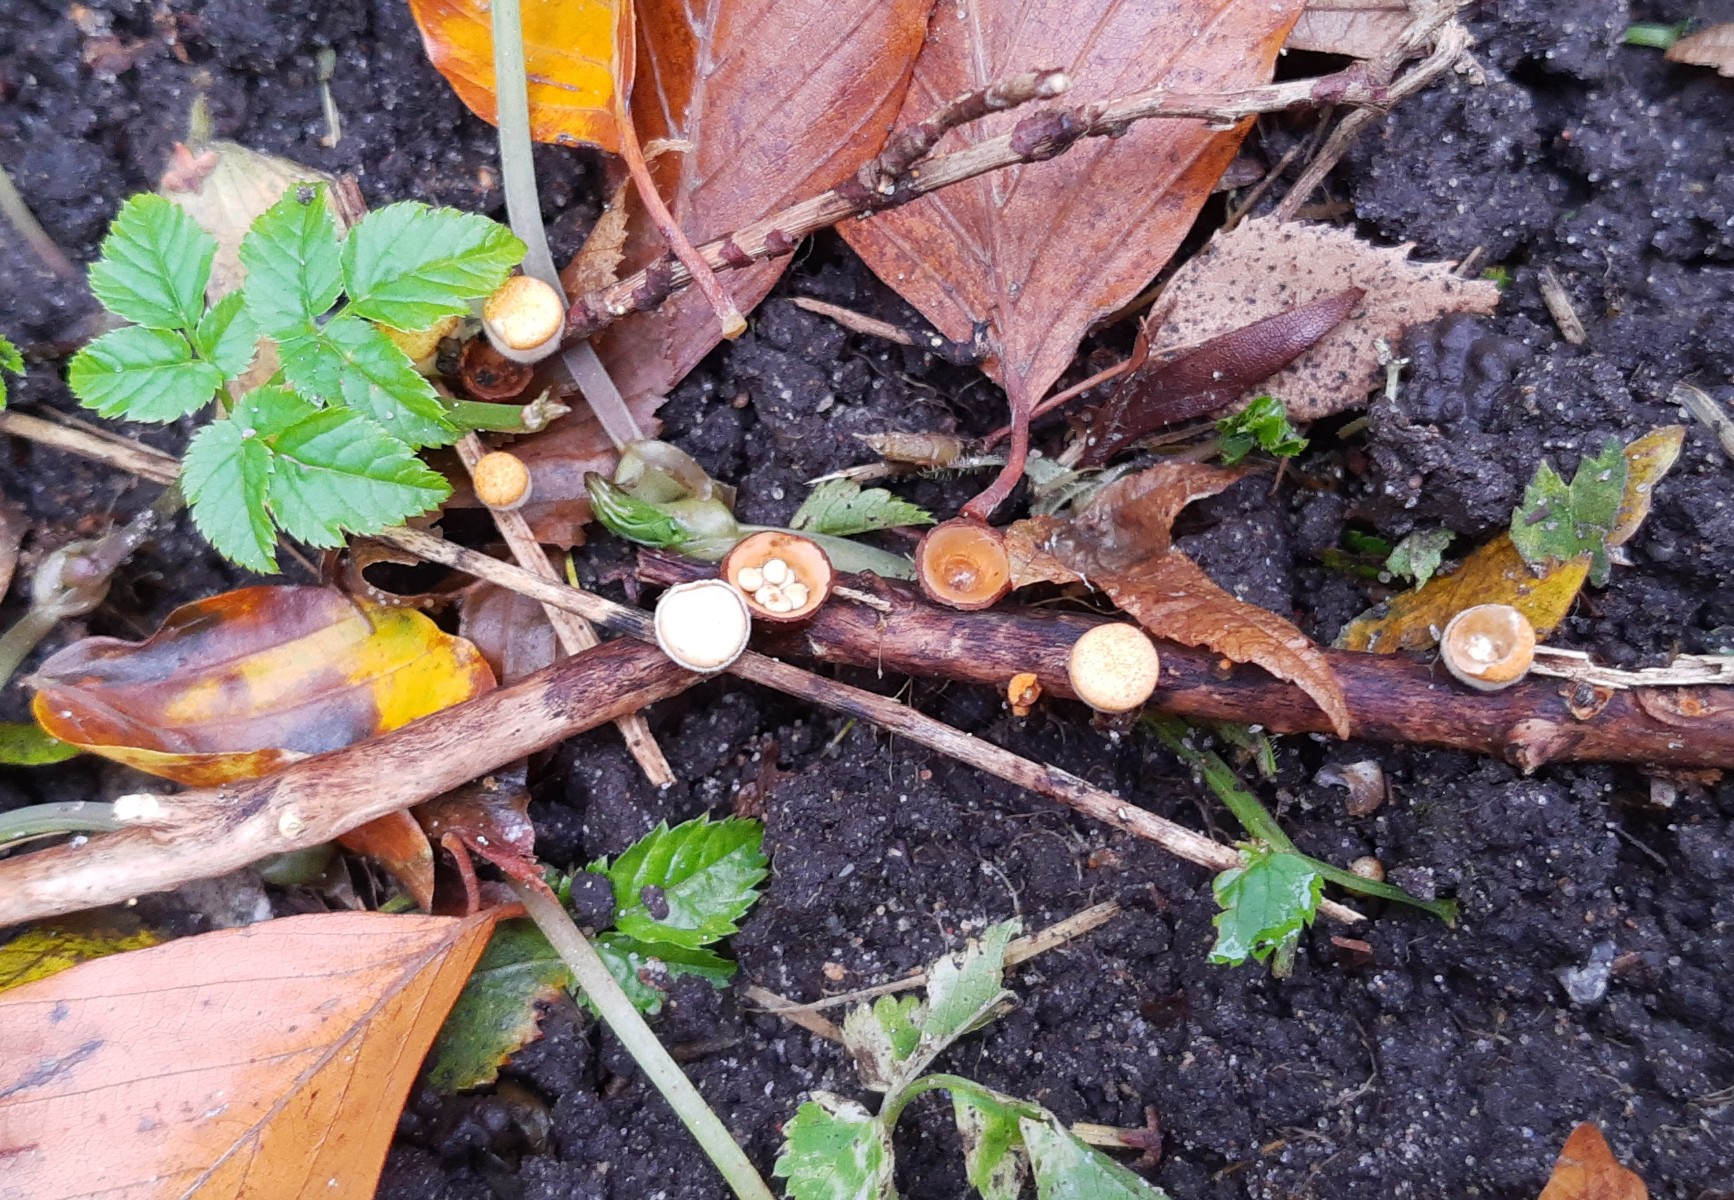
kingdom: Fungi
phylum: Basidiomycota
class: Agaricomycetes
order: Agaricales
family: Nidulariaceae
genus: Crucibulum
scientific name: Crucibulum crucibuliforme
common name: krukkesvamp
